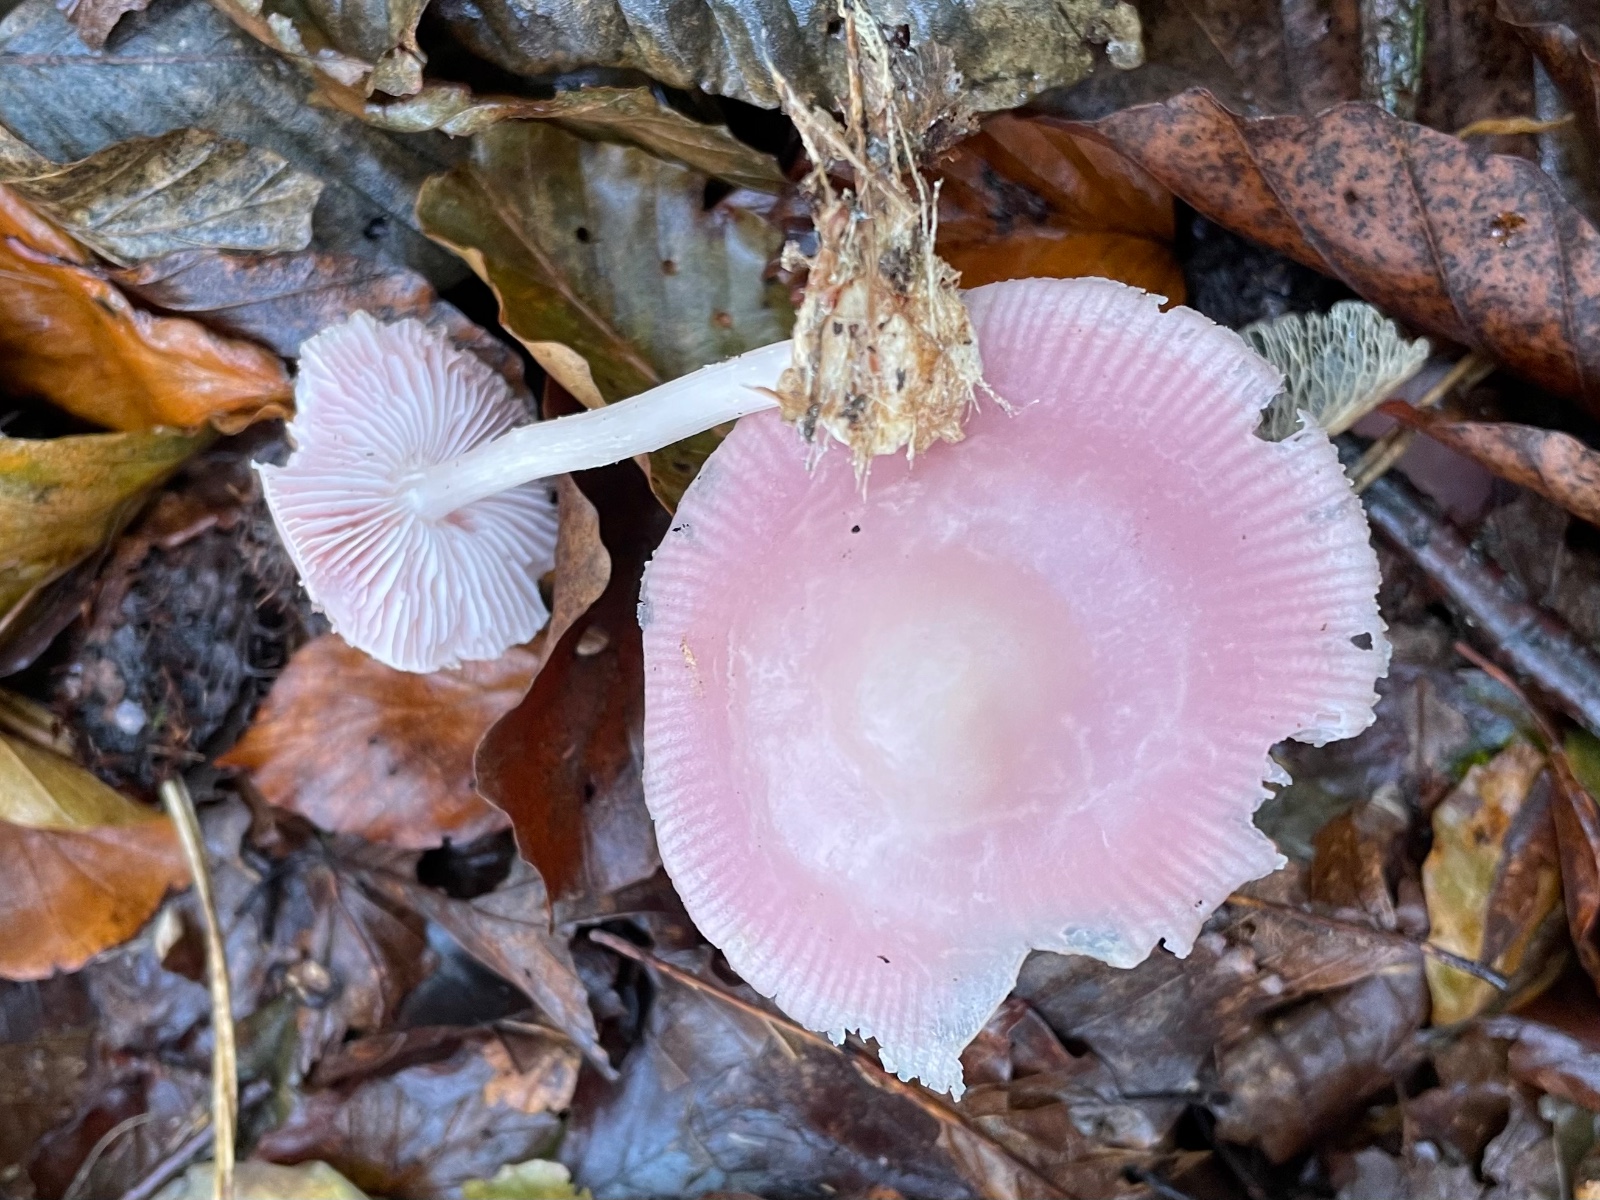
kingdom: Fungi
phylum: Basidiomycota
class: Agaricomycetes
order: Agaricales
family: Mycenaceae
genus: Mycena
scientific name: Mycena rosea
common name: rosa huesvamp
